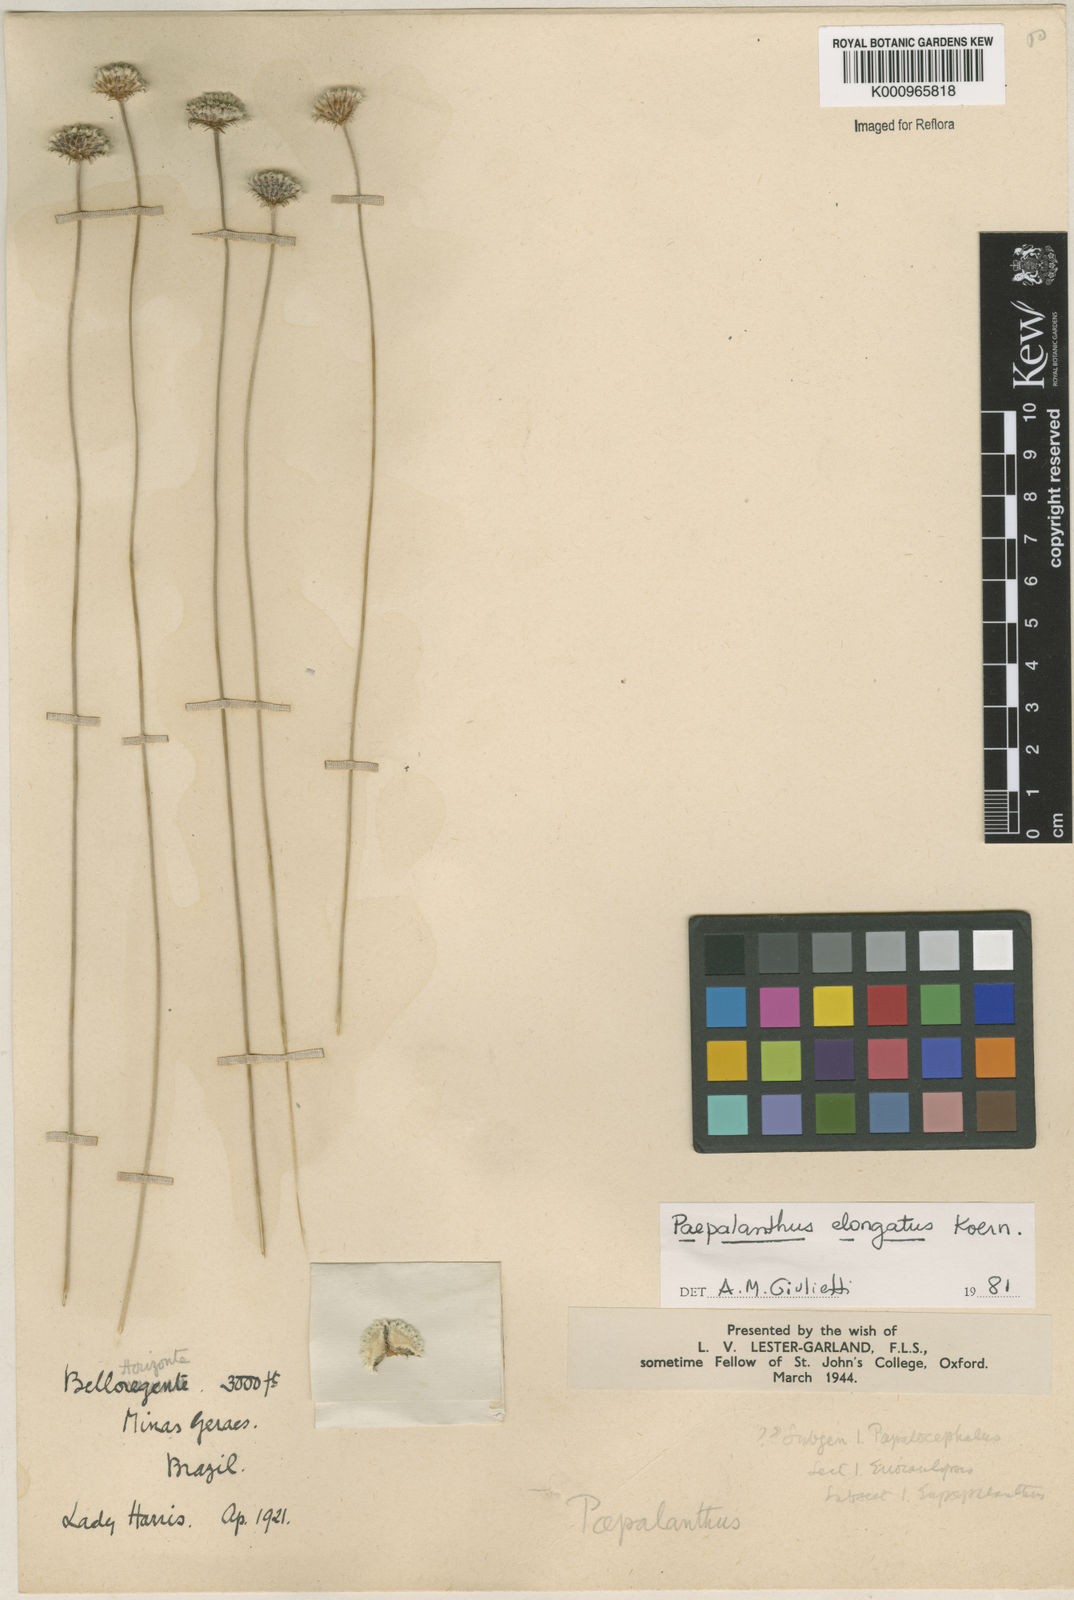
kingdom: Plantae
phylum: Tracheophyta
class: Liliopsida
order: Poales
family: Eriocaulaceae
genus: Paepalanthus
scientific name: Paepalanthus
